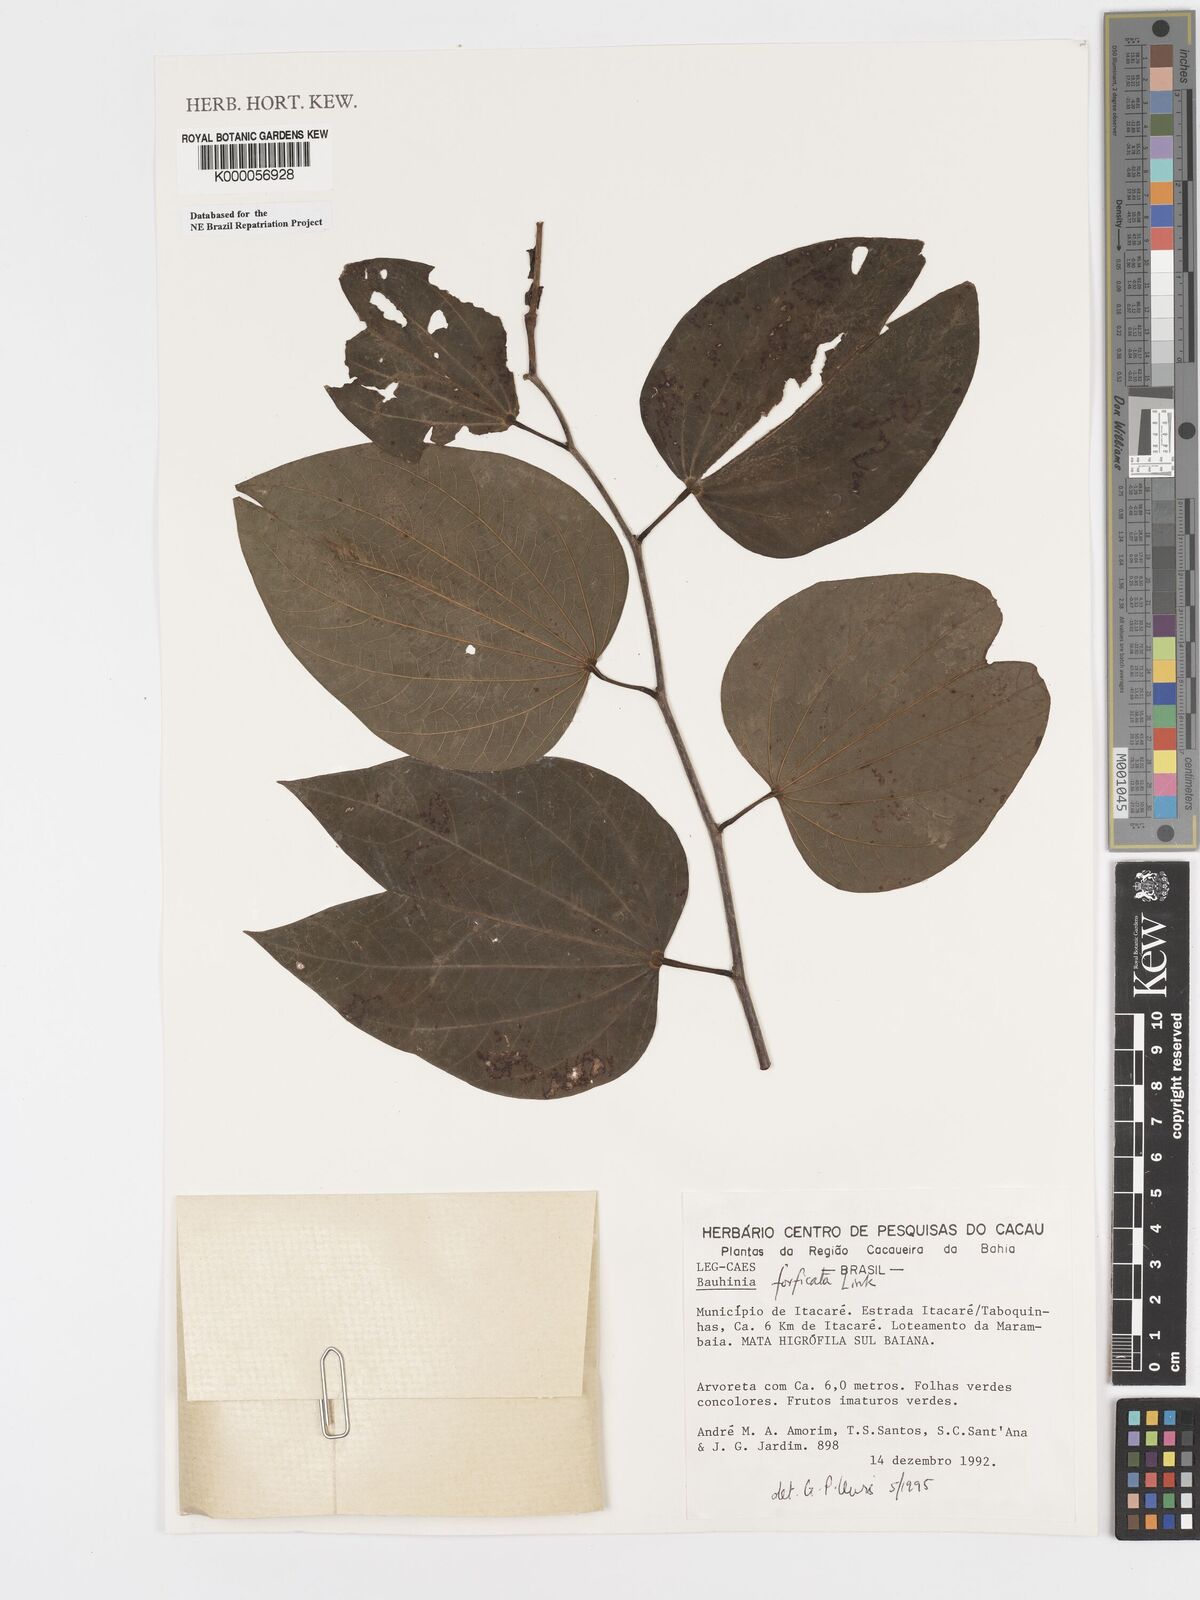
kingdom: Plantae
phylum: Tracheophyta
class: Magnoliopsida
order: Fabales
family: Fabaceae
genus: Bauhinia
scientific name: Bauhinia forficata
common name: Orchid tree
